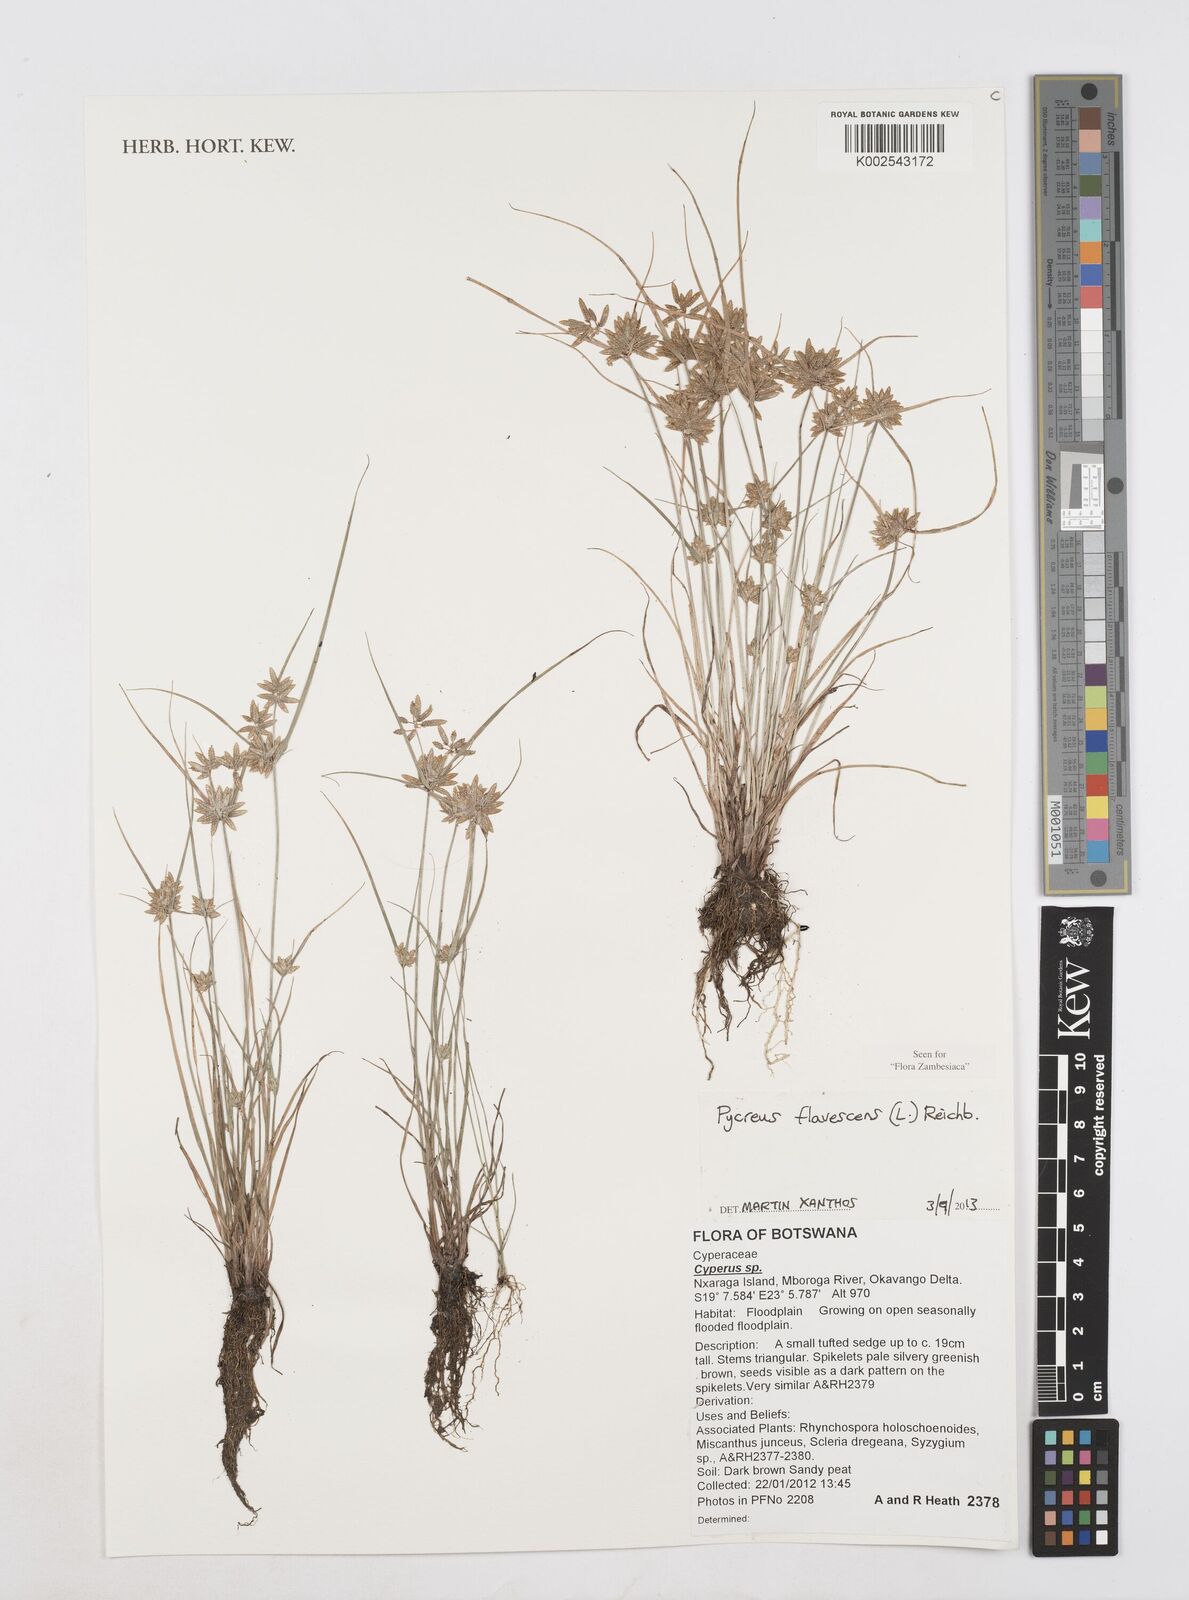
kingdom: Plantae
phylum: Tracheophyta
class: Liliopsida
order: Poales
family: Cyperaceae
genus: Cyperus
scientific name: Cyperus flavescens
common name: Yellow galingale
